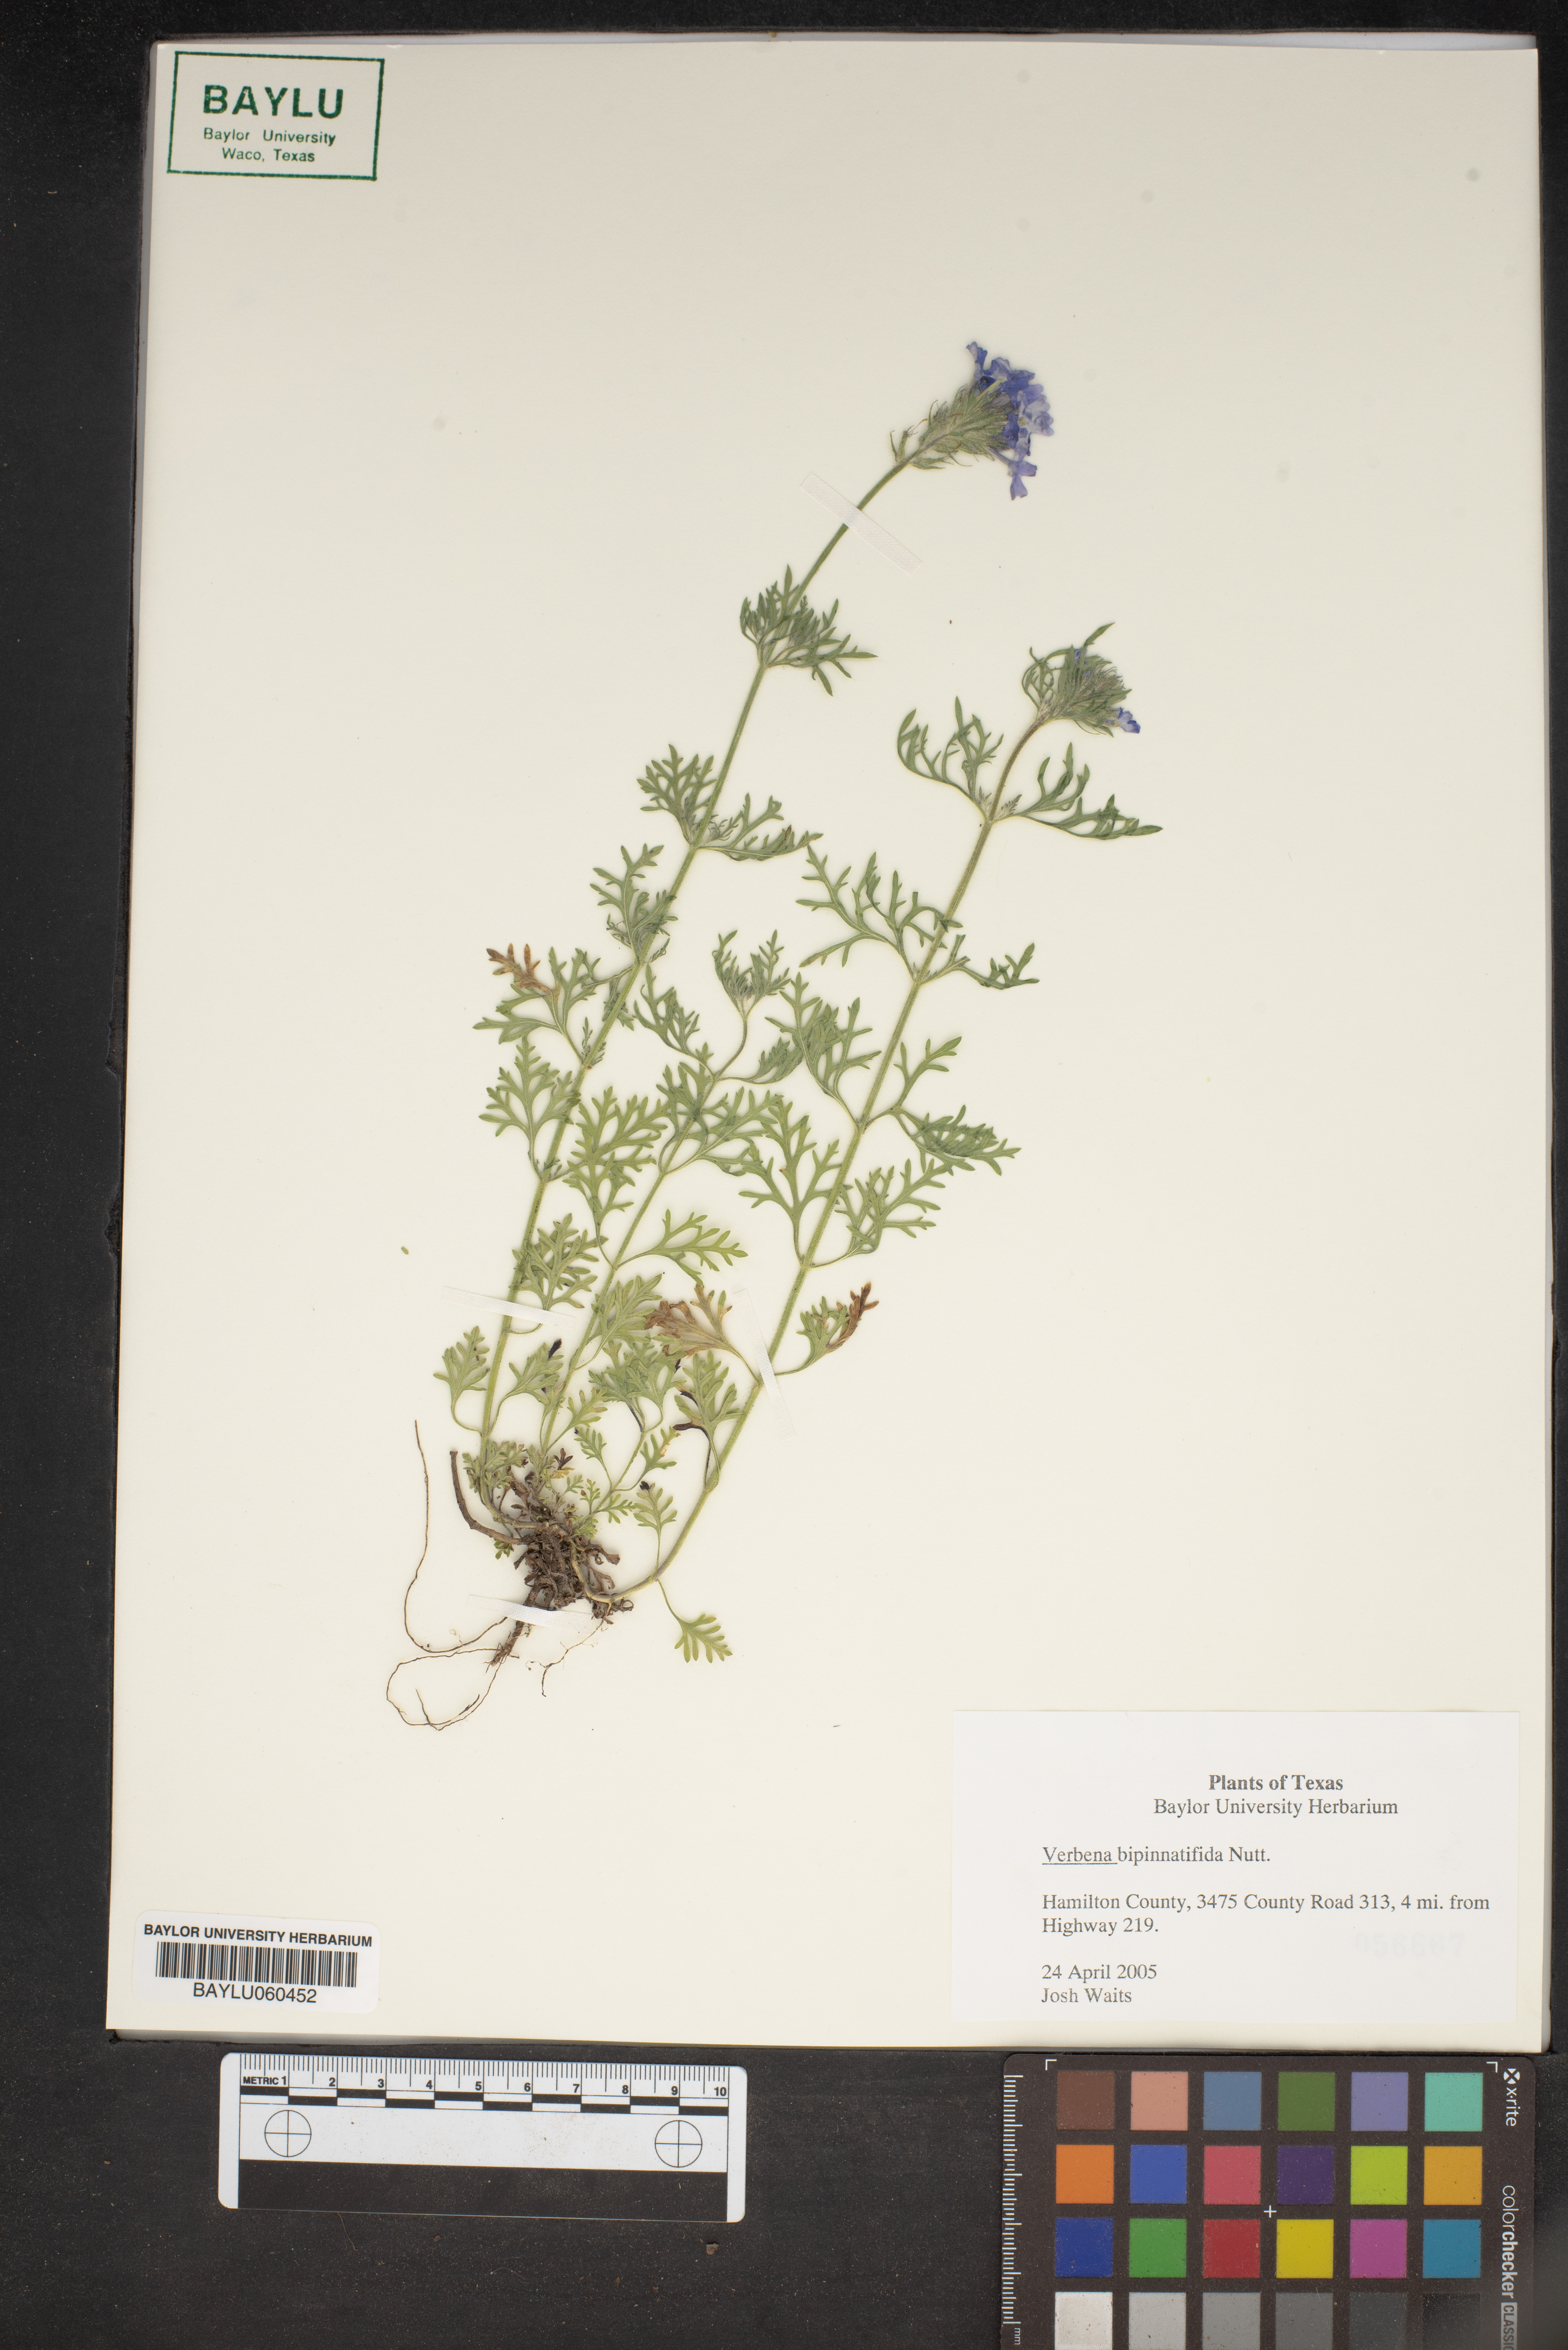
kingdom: Plantae
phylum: Tracheophyta
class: Magnoliopsida
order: Lamiales
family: Verbenaceae
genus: Verbena
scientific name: Verbena bipinnatifida
